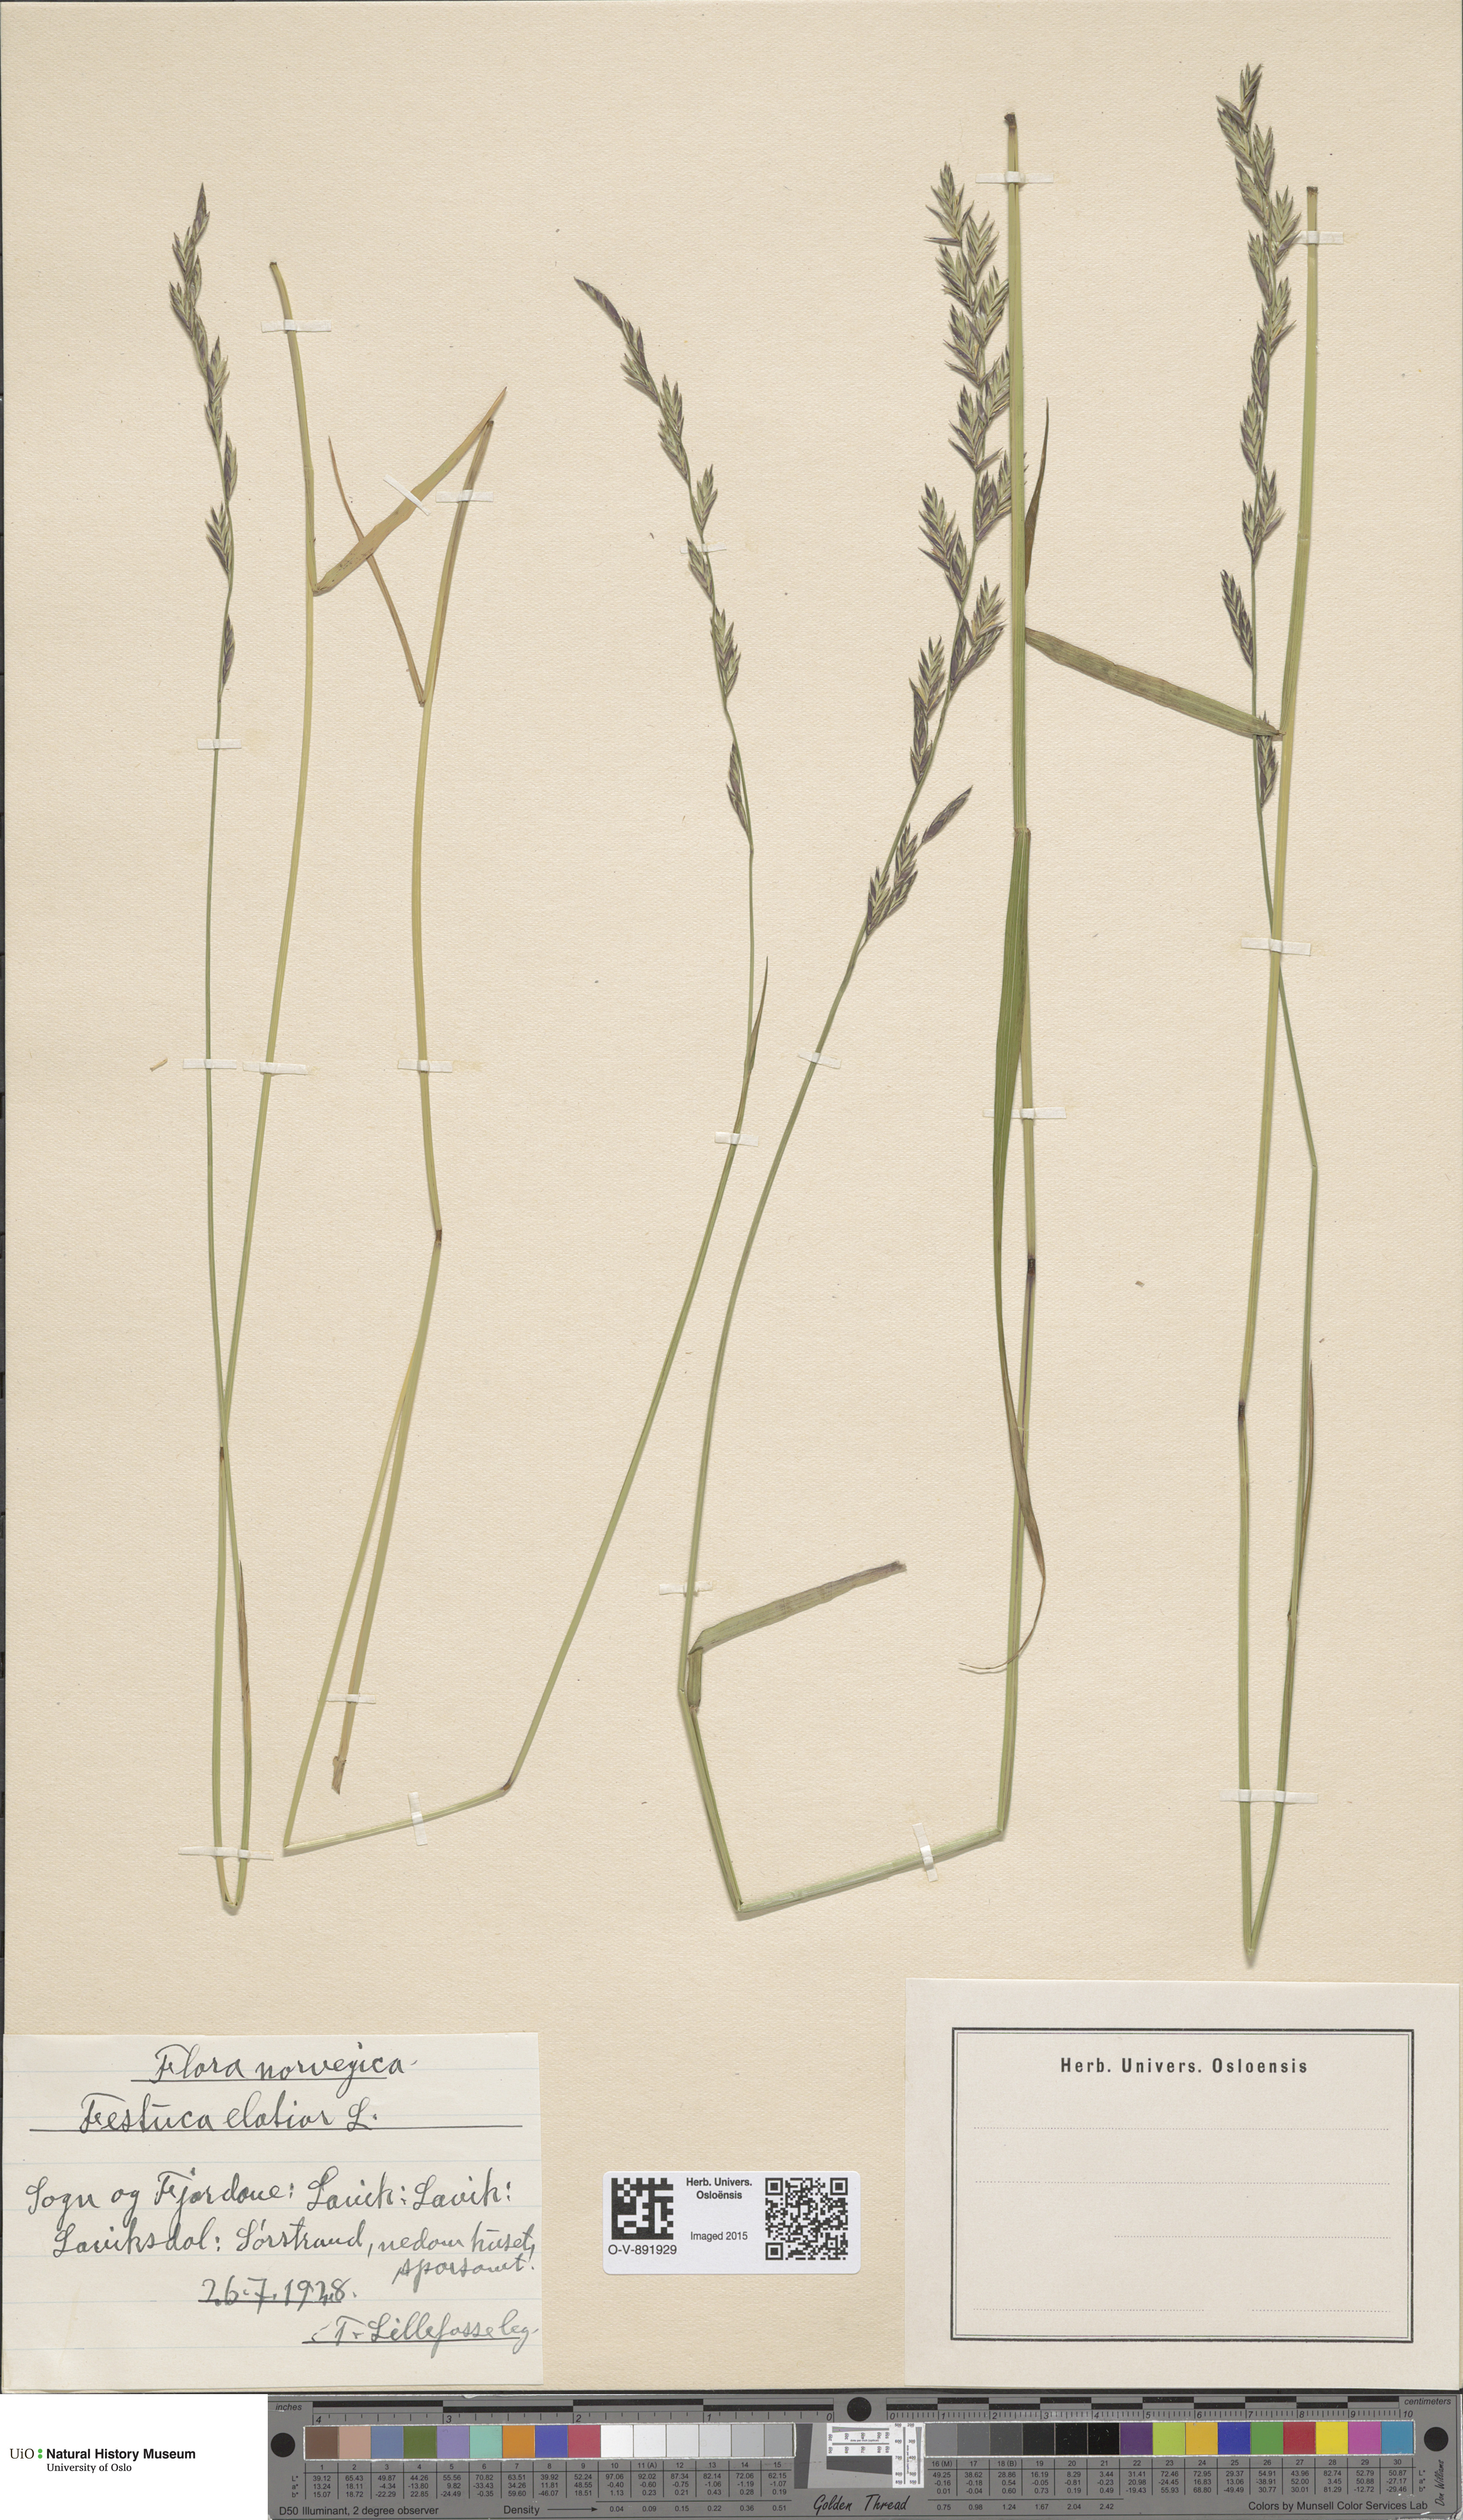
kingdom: Plantae
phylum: Tracheophyta
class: Liliopsida
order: Poales
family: Poaceae
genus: Lolium
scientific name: Lolium arundinaceum
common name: Reed fescue
